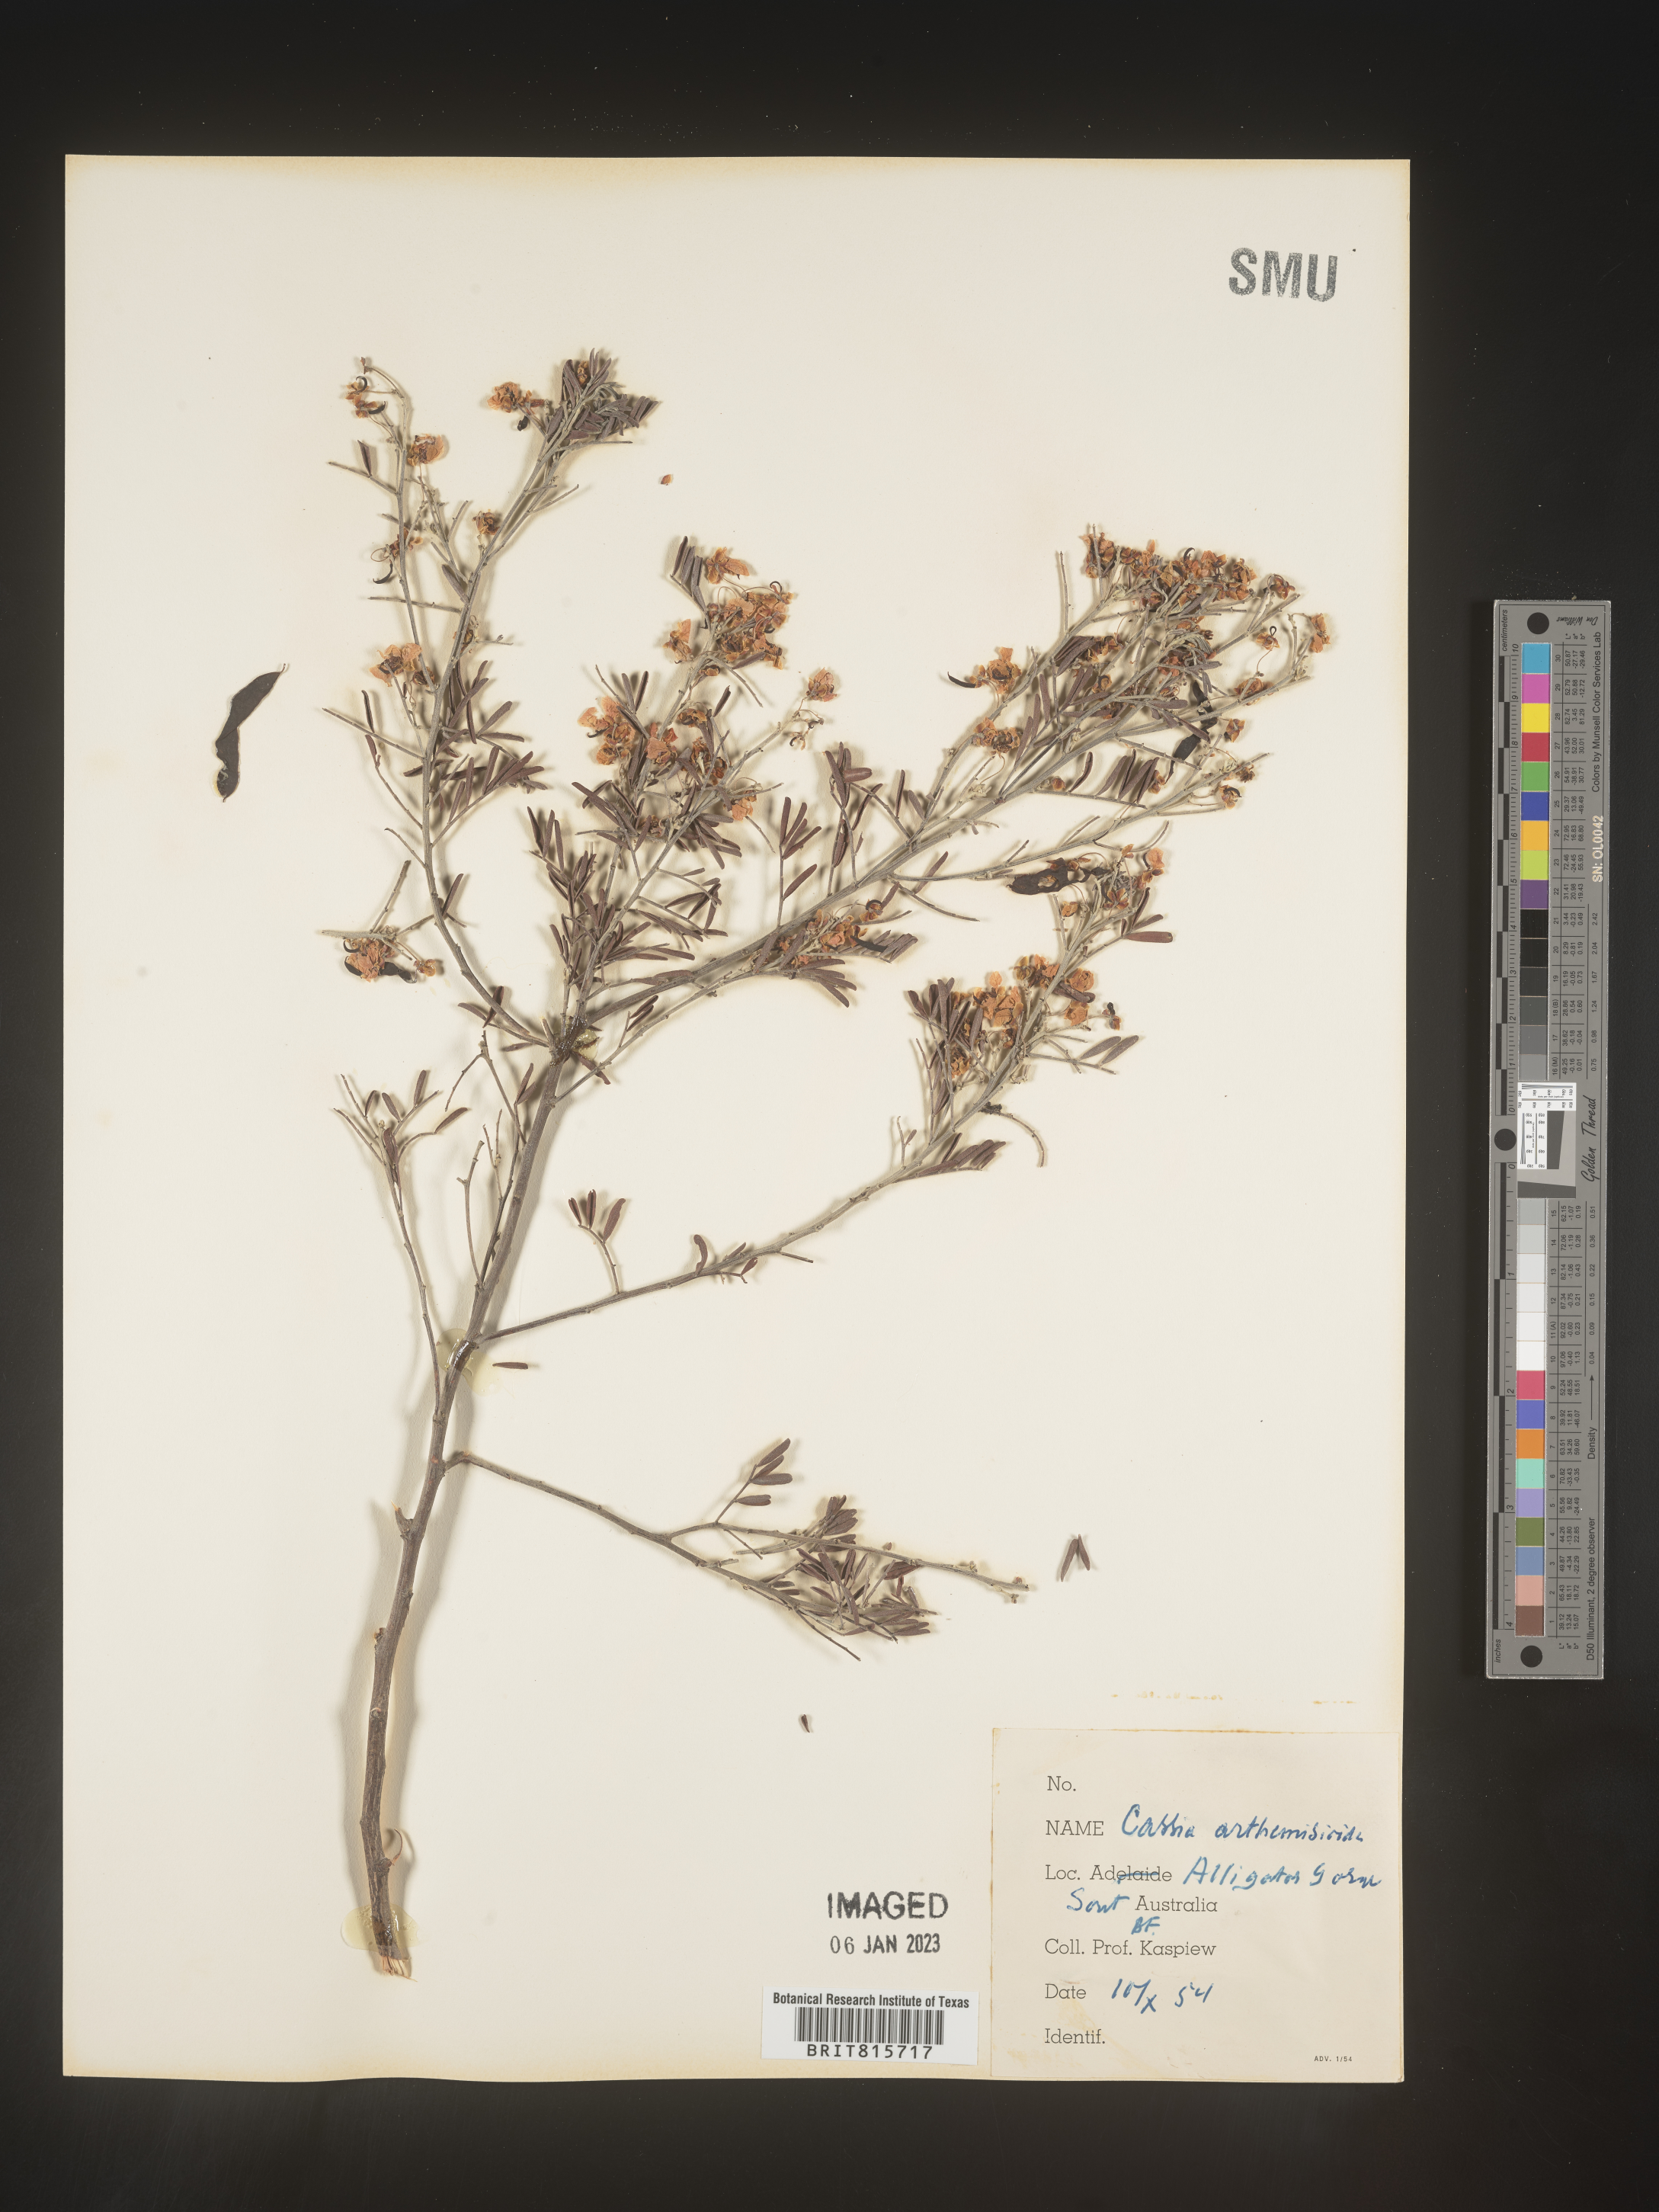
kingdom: Plantae
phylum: Tracheophyta
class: Magnoliopsida
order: Fabales
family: Fabaceae
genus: Cassia
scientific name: Cassia
